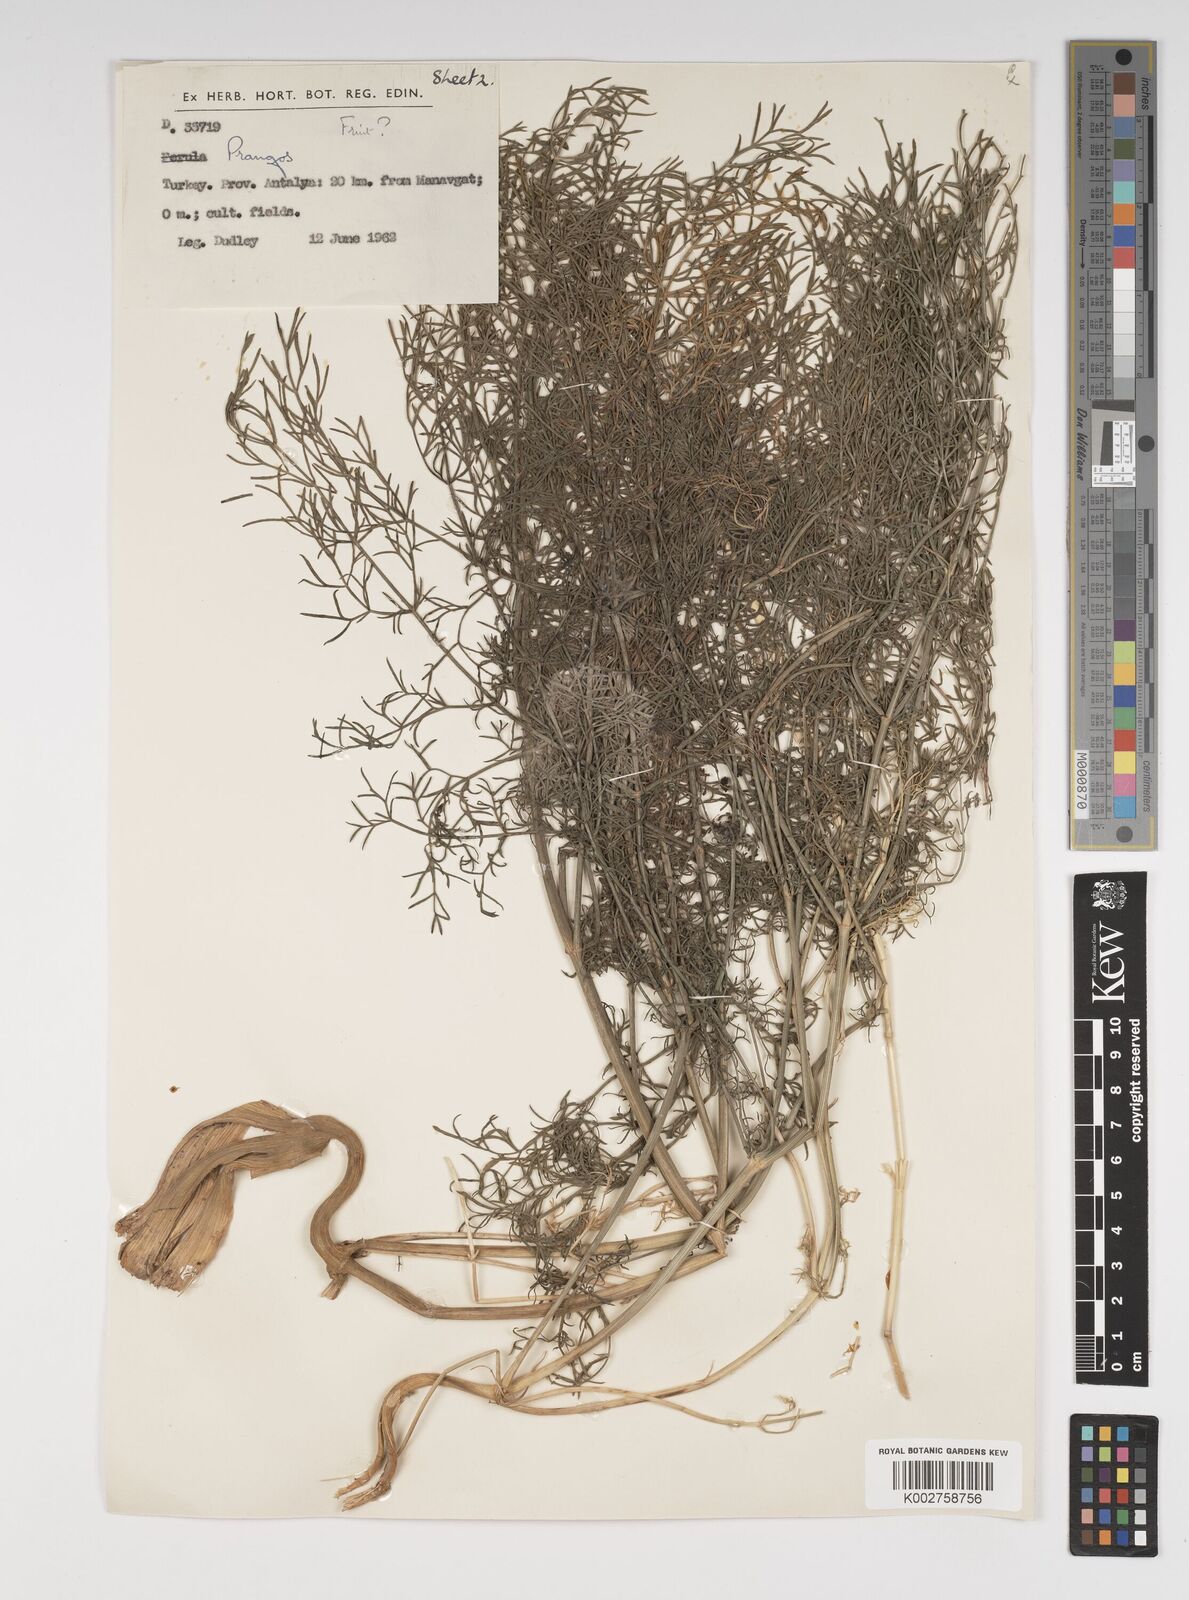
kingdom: Plantae
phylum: Tracheophyta
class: Magnoliopsida
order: Apiales
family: Apiaceae
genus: Cachrys
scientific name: Cachrys
